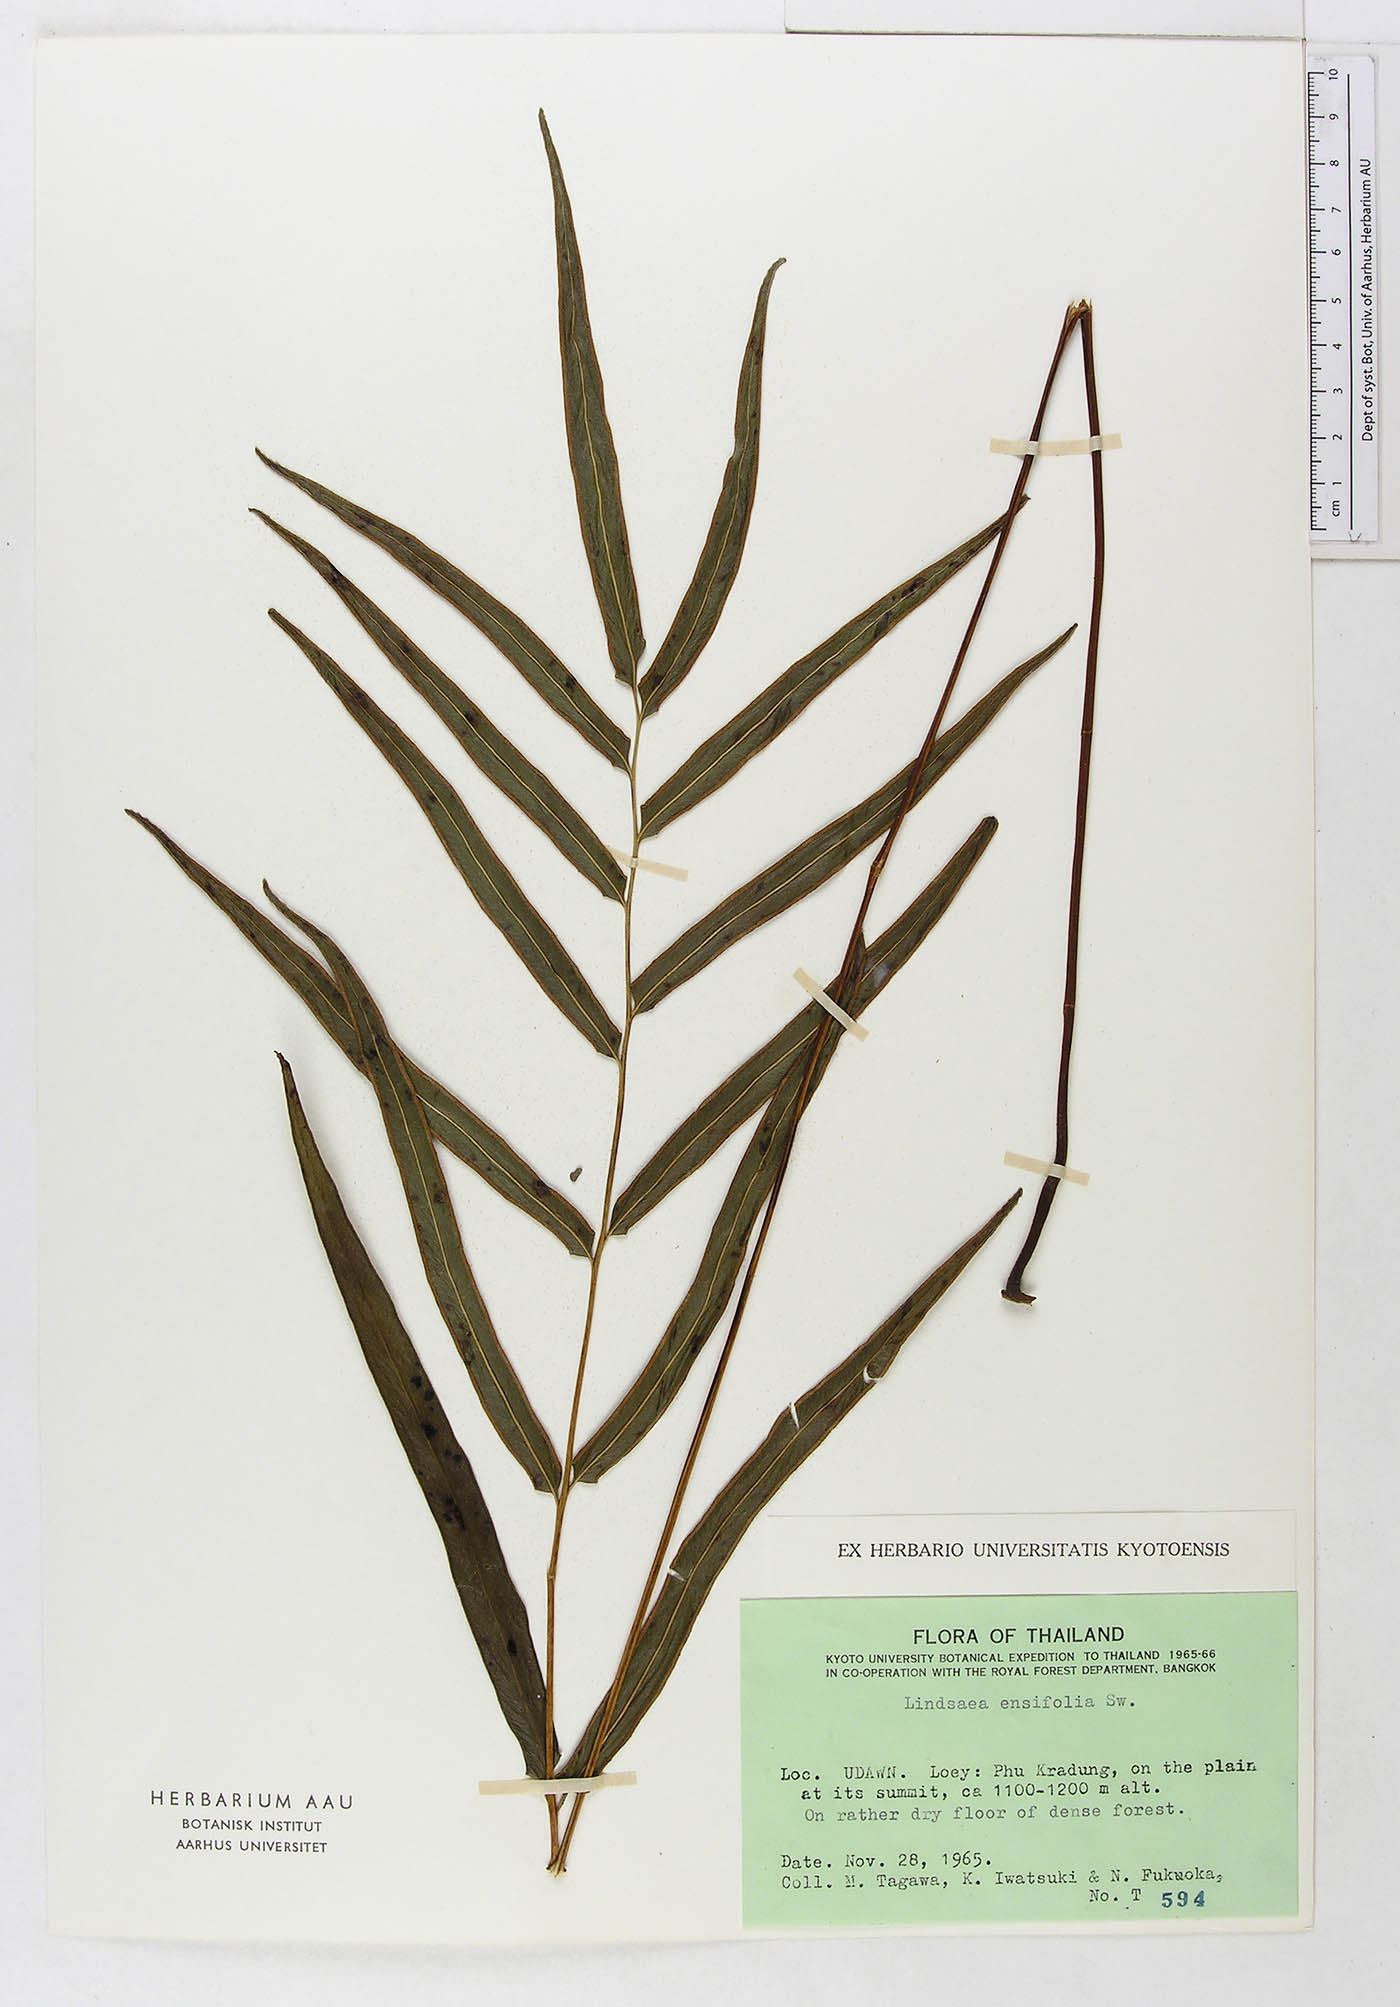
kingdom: Plantae
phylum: Tracheophyta
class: Polypodiopsida
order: Polypodiales
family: Lindsaeaceae
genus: Lindsaea
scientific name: Lindsaea ensifolia
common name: Graceful necklace fern
